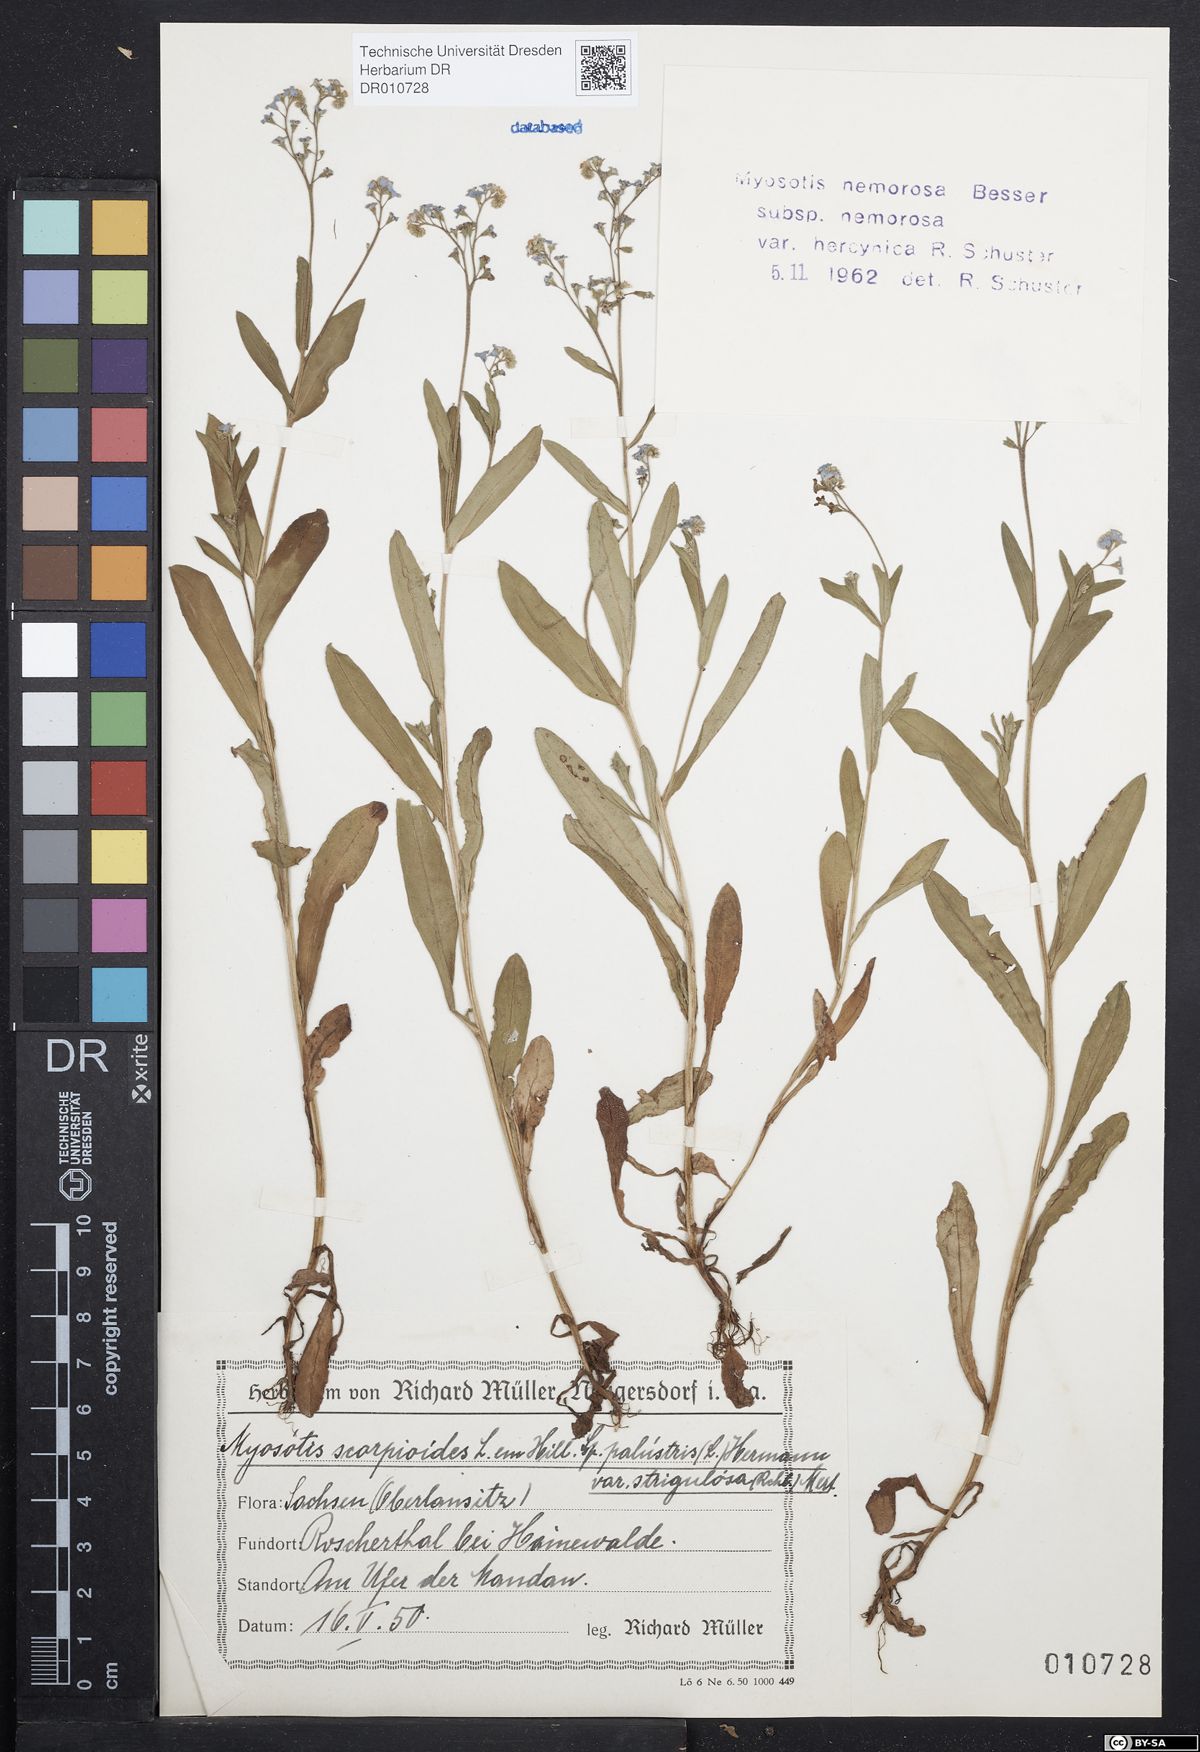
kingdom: Plantae
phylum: Tracheophyta
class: Magnoliopsida
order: Boraginales
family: Boraginaceae
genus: Myosotis
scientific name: Myosotis nemorosa
